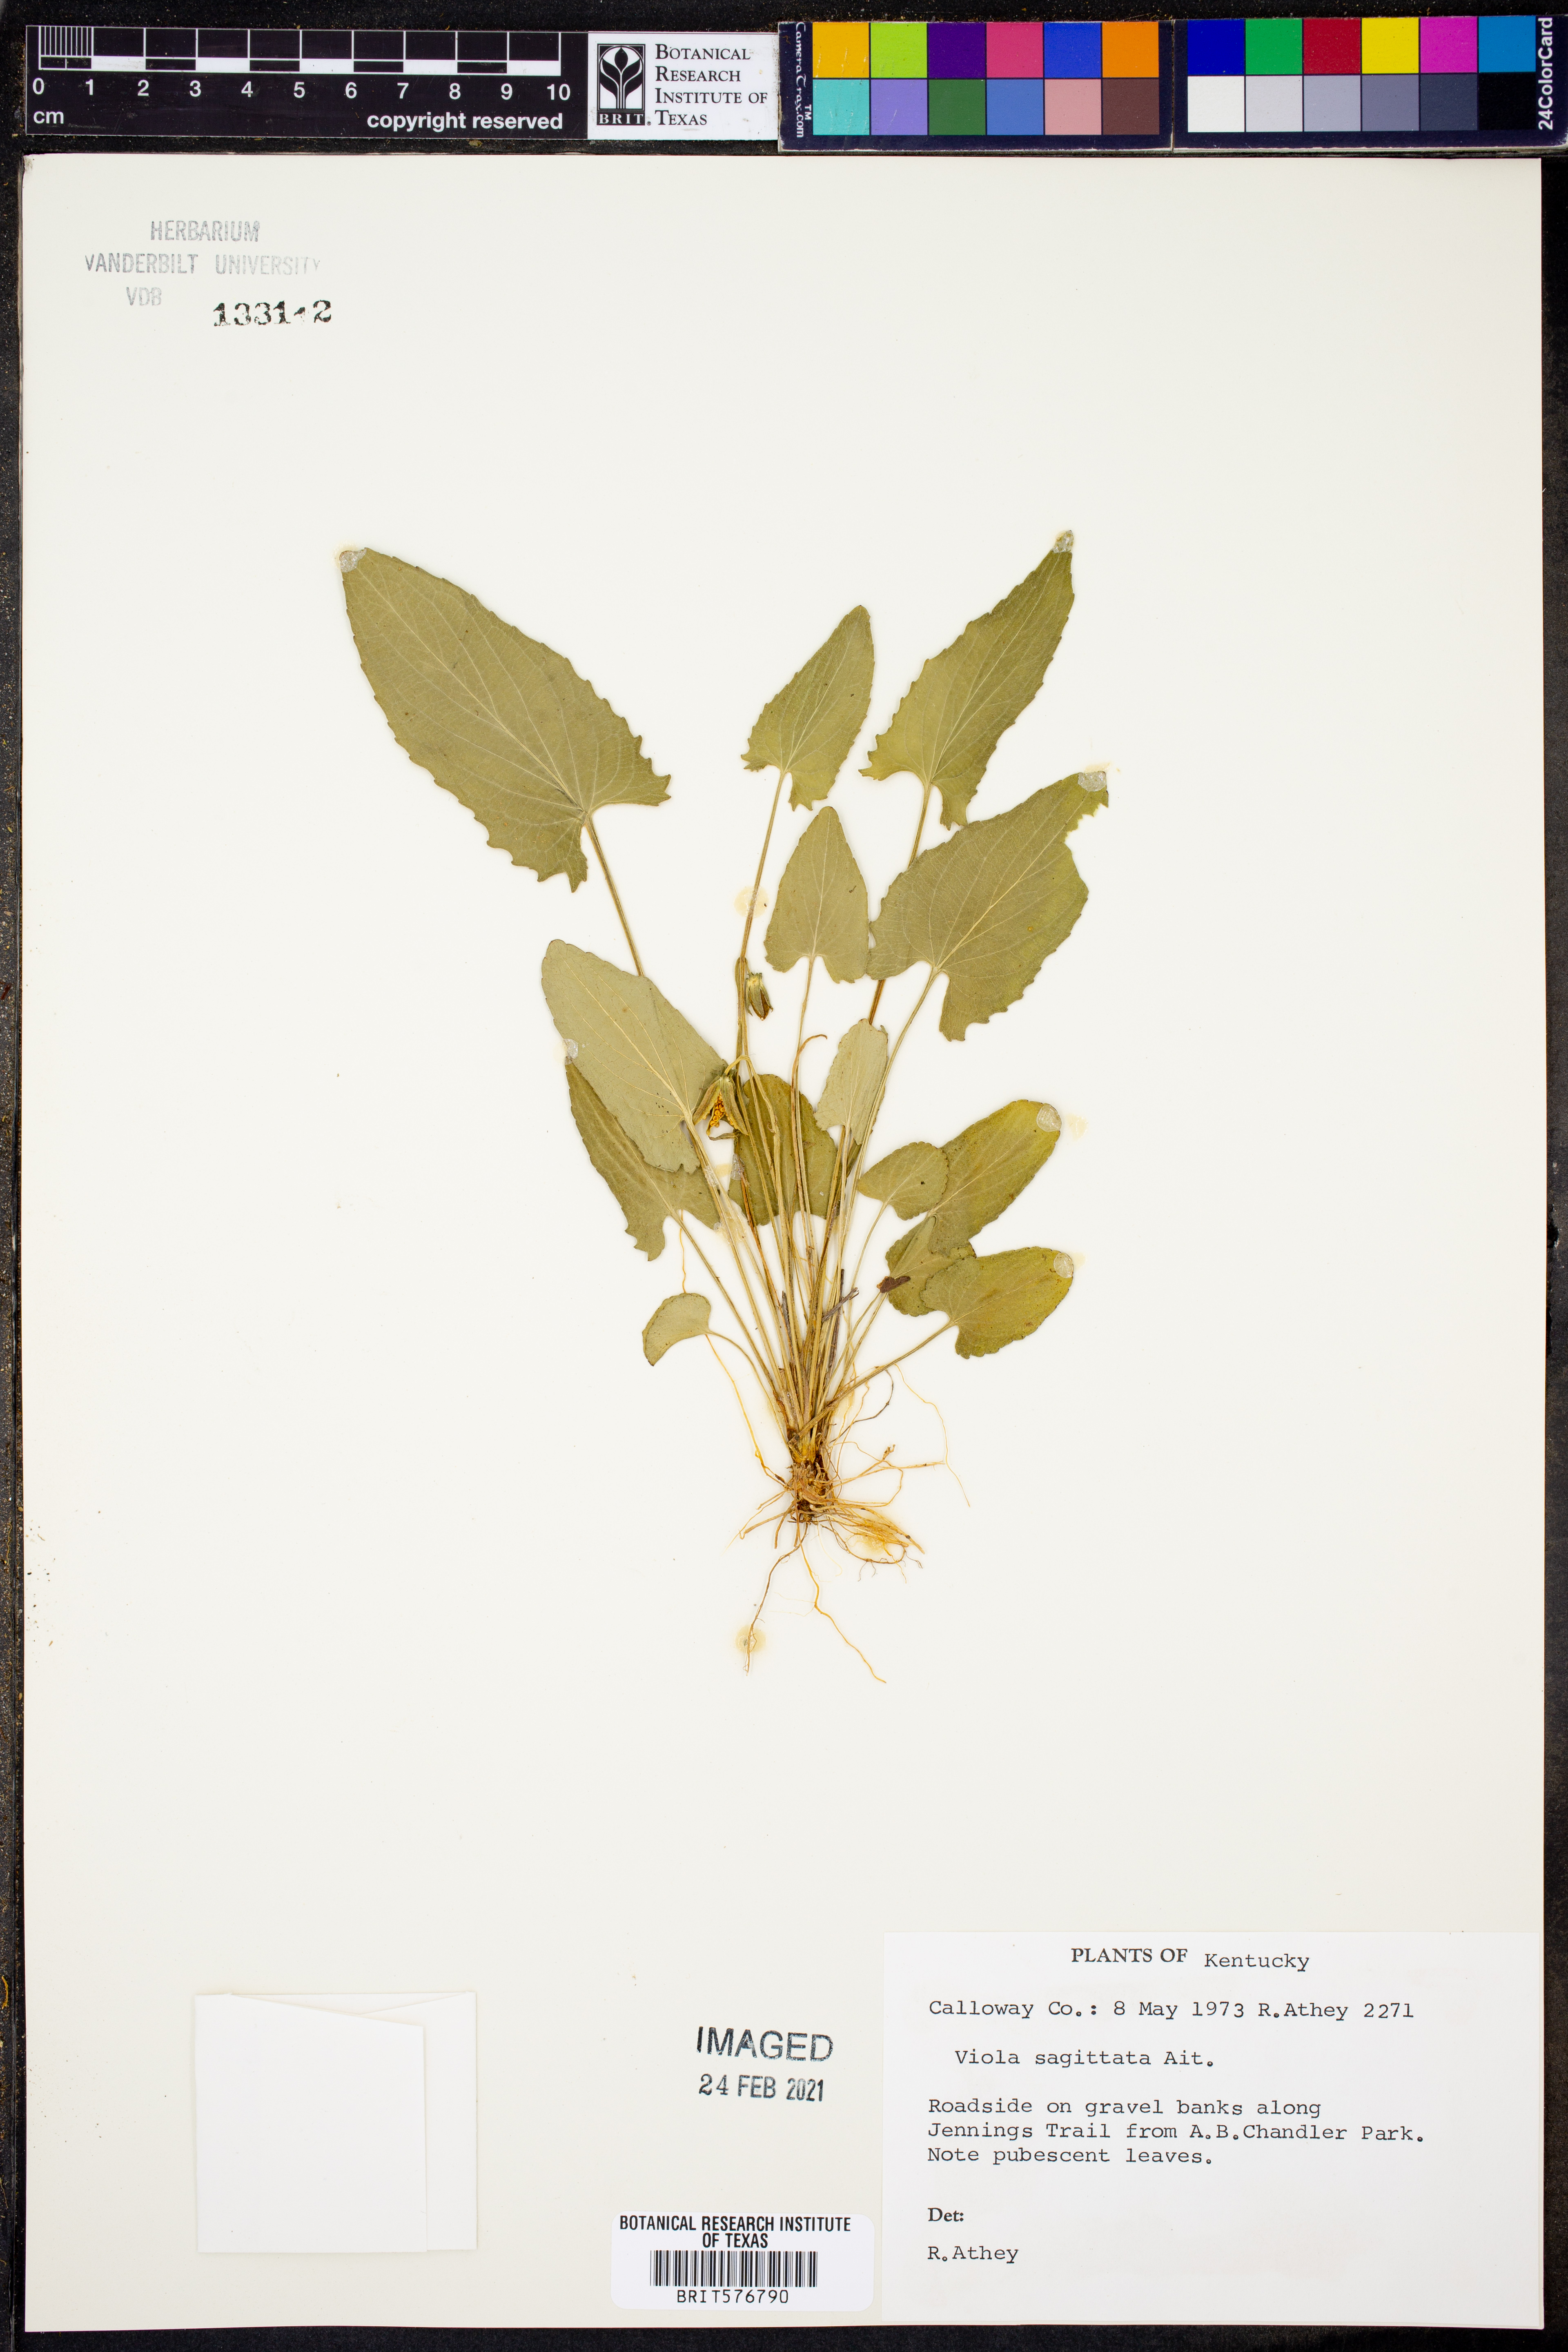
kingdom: Plantae
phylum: Tracheophyta
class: Magnoliopsida
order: Malpighiales
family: Violaceae
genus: Viola
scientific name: Viola sagittata
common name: Arrowhead violet
